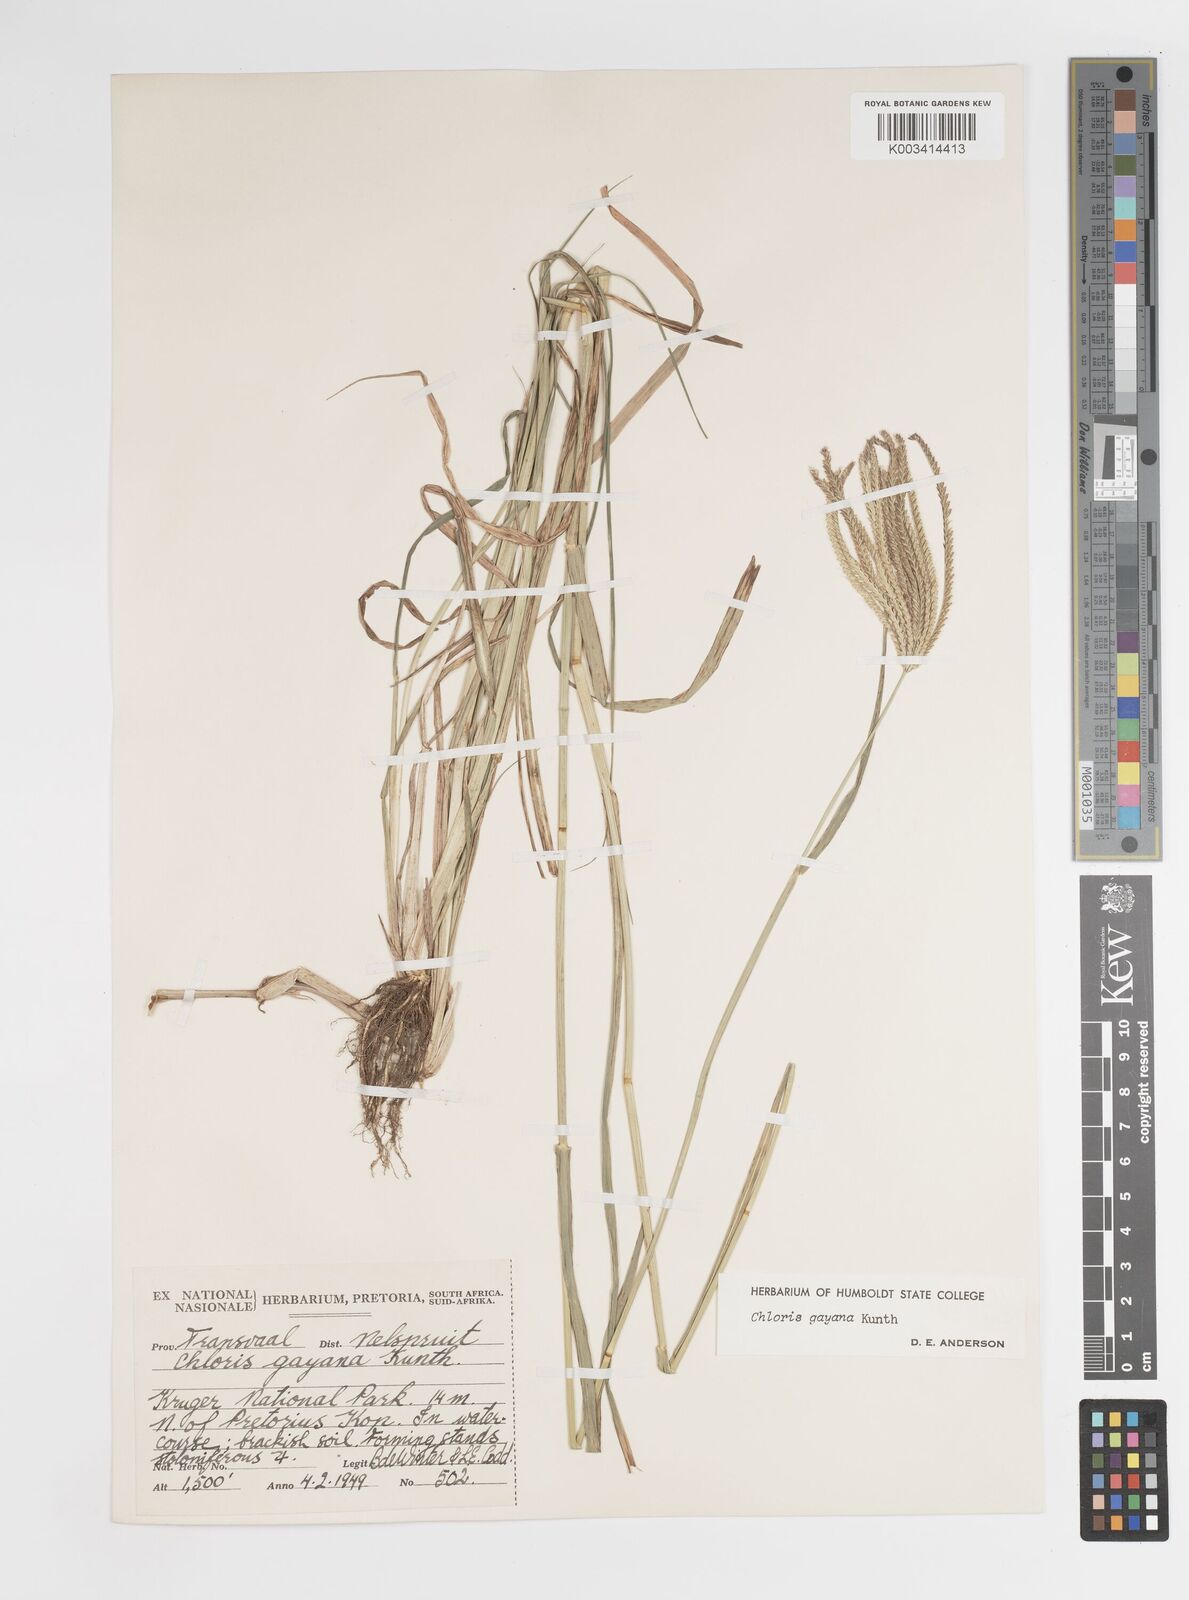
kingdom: Plantae
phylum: Tracheophyta
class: Liliopsida
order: Poales
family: Poaceae
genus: Chloris
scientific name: Chloris gayana
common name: Rhodes grass
